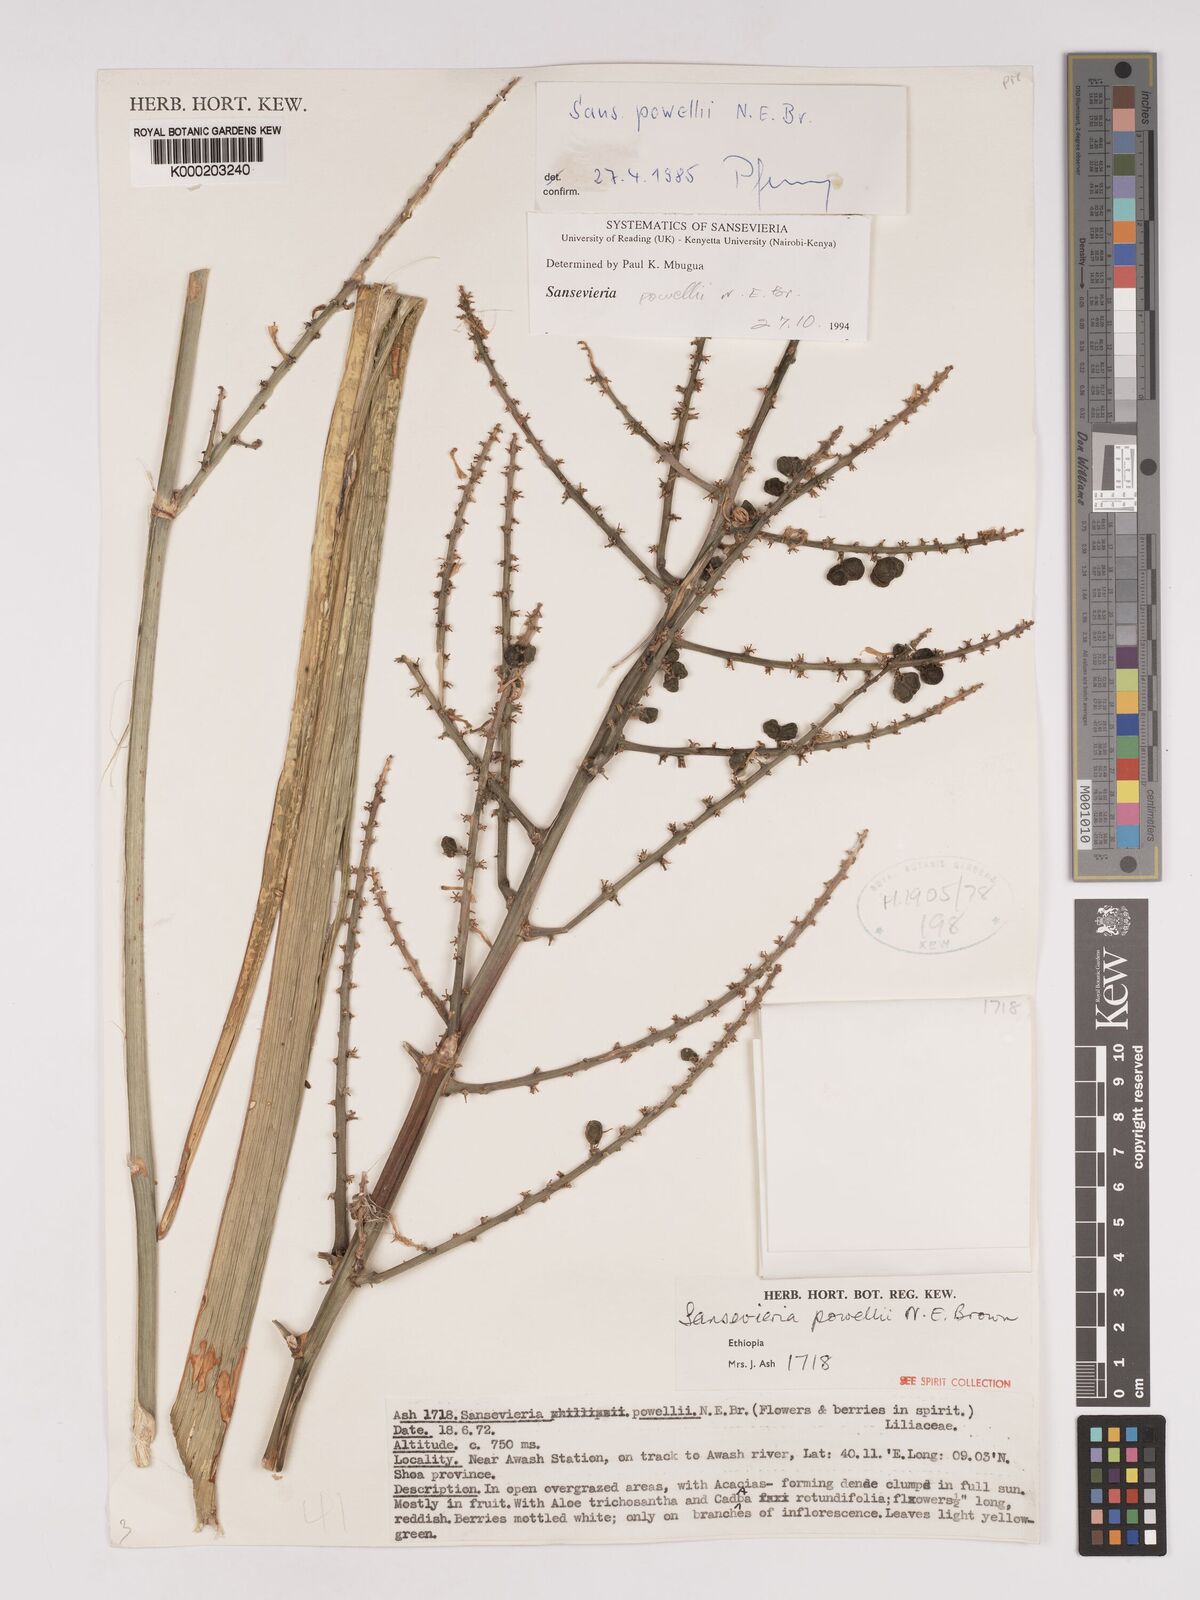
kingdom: Plantae
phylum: Tracheophyta
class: Liliopsida
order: Asparagales
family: Asparagaceae
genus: Dracaena
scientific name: Dracaena powellii
